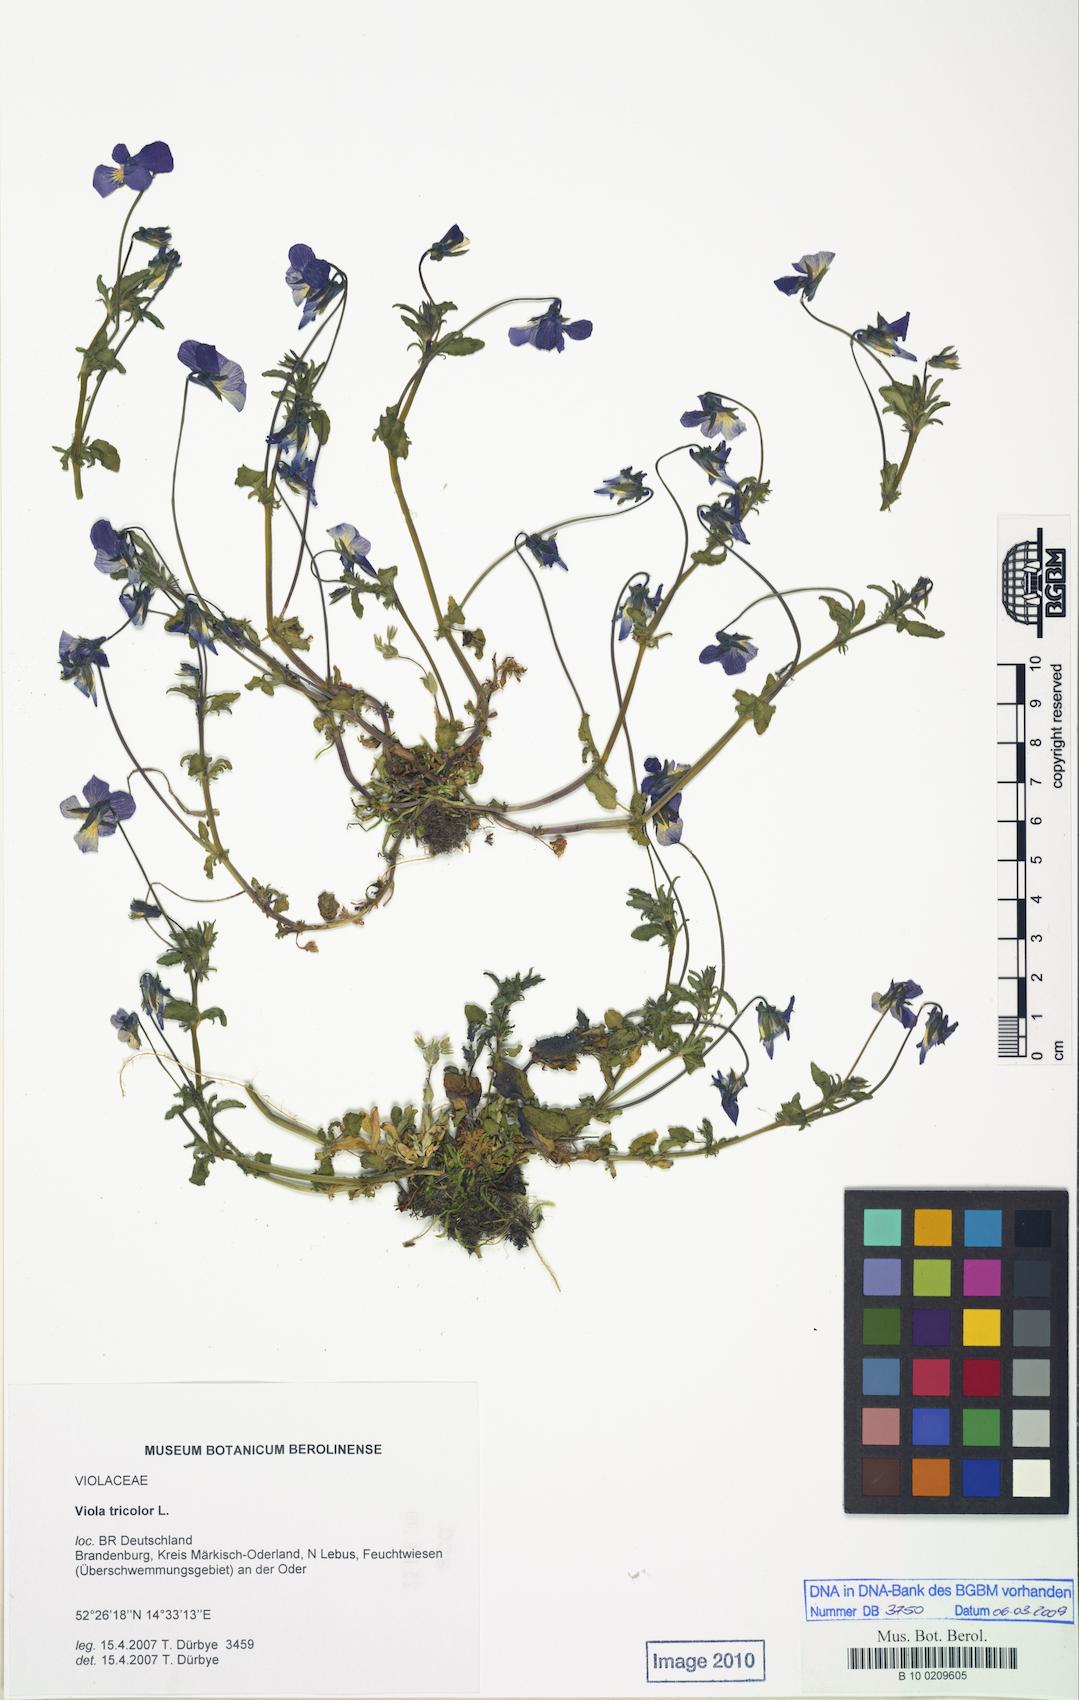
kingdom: Plantae
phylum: Tracheophyta
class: Magnoliopsida
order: Malpighiales
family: Violaceae
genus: Viola
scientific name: Viola tricolor
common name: Pansy
